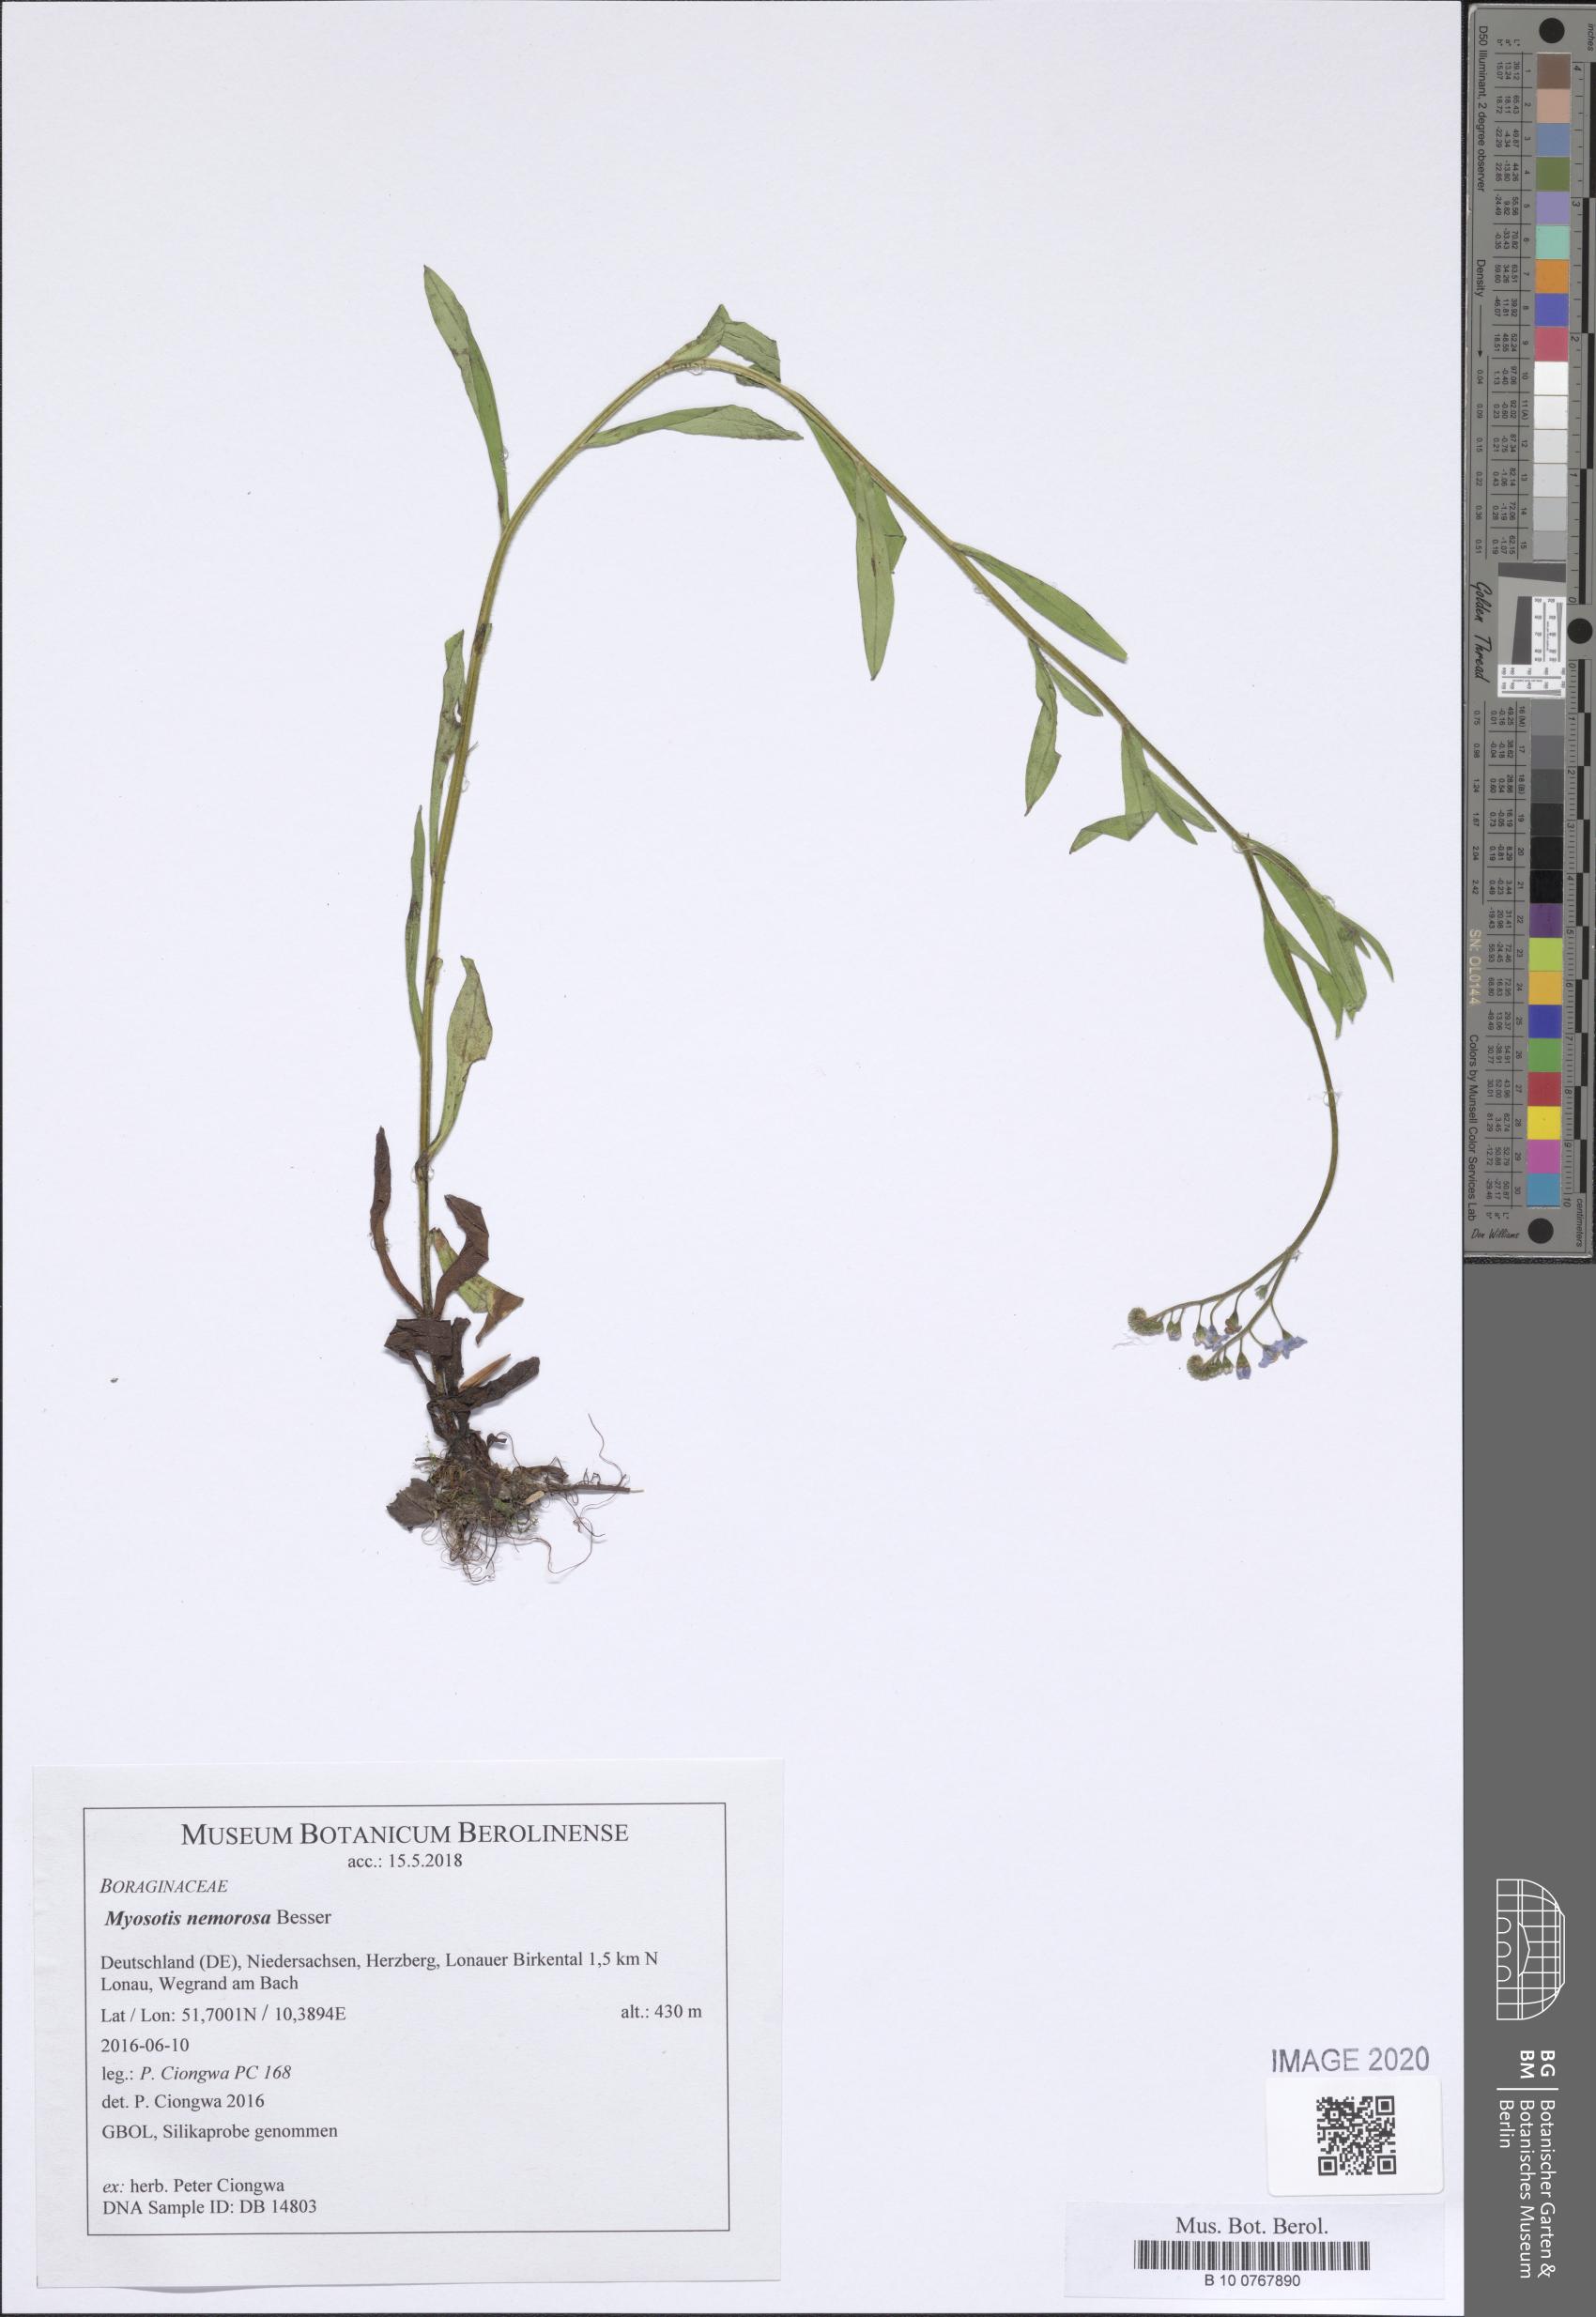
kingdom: Plantae
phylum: Tracheophyta
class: Magnoliopsida
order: Boraginales
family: Boraginaceae
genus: Myosotis
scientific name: Myosotis nemorosa
